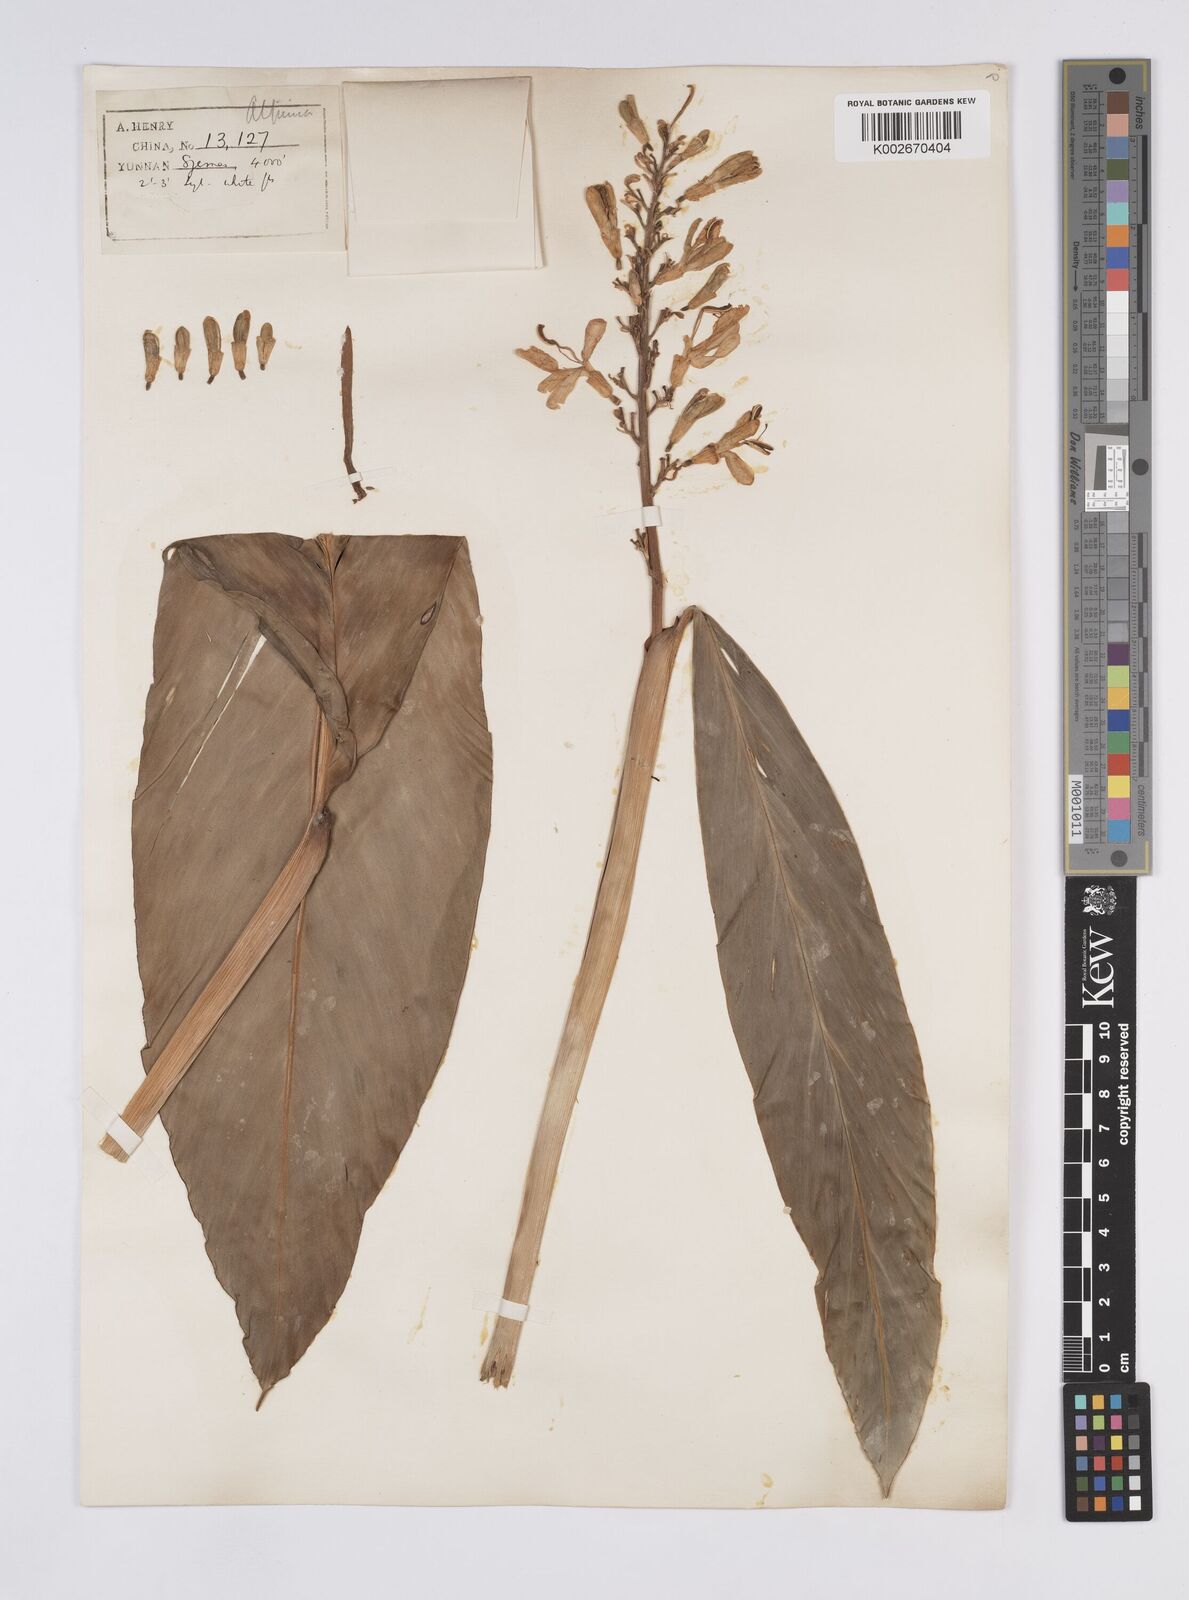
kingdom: Plantae
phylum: Tracheophyta
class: Liliopsida
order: Zingiberales
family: Zingiberaceae
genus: Alpinia
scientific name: Alpinia galanga
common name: Siamese-ginger
